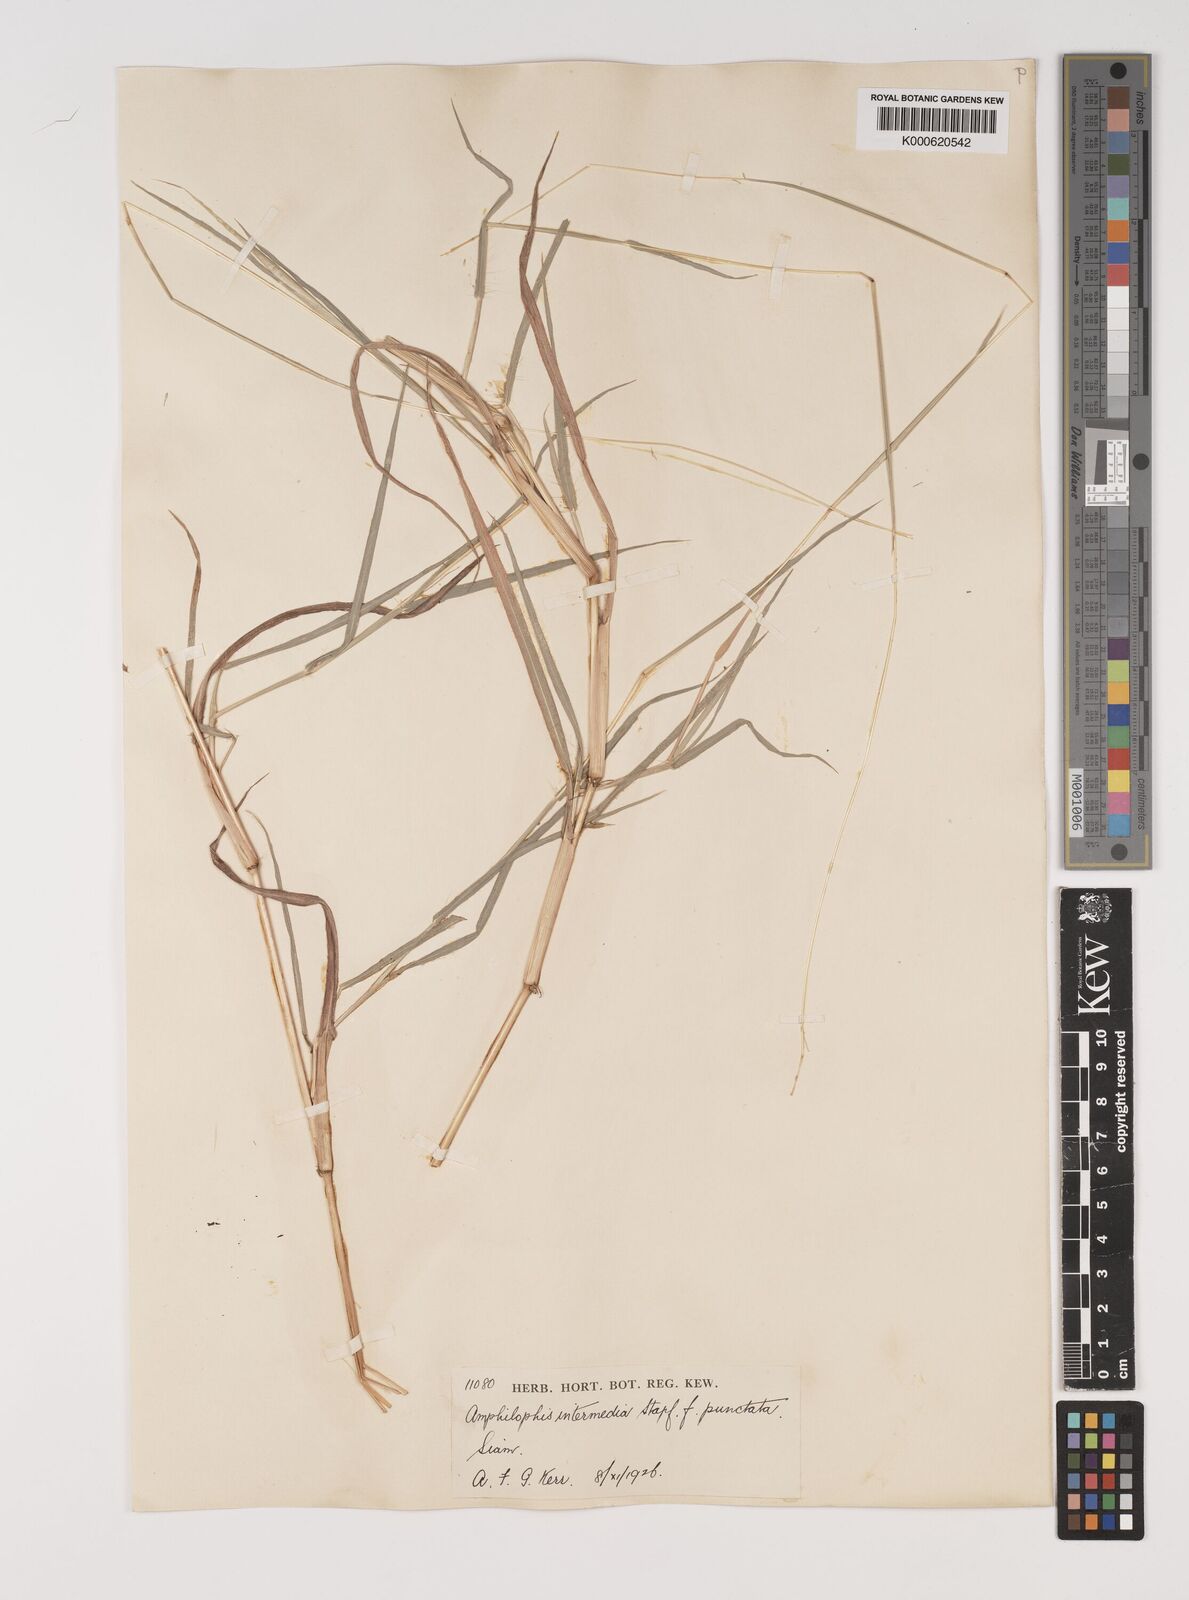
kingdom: Plantae
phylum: Tracheophyta
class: Liliopsida
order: Poales
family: Poaceae
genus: Bothriochloa
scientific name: Bothriochloa
